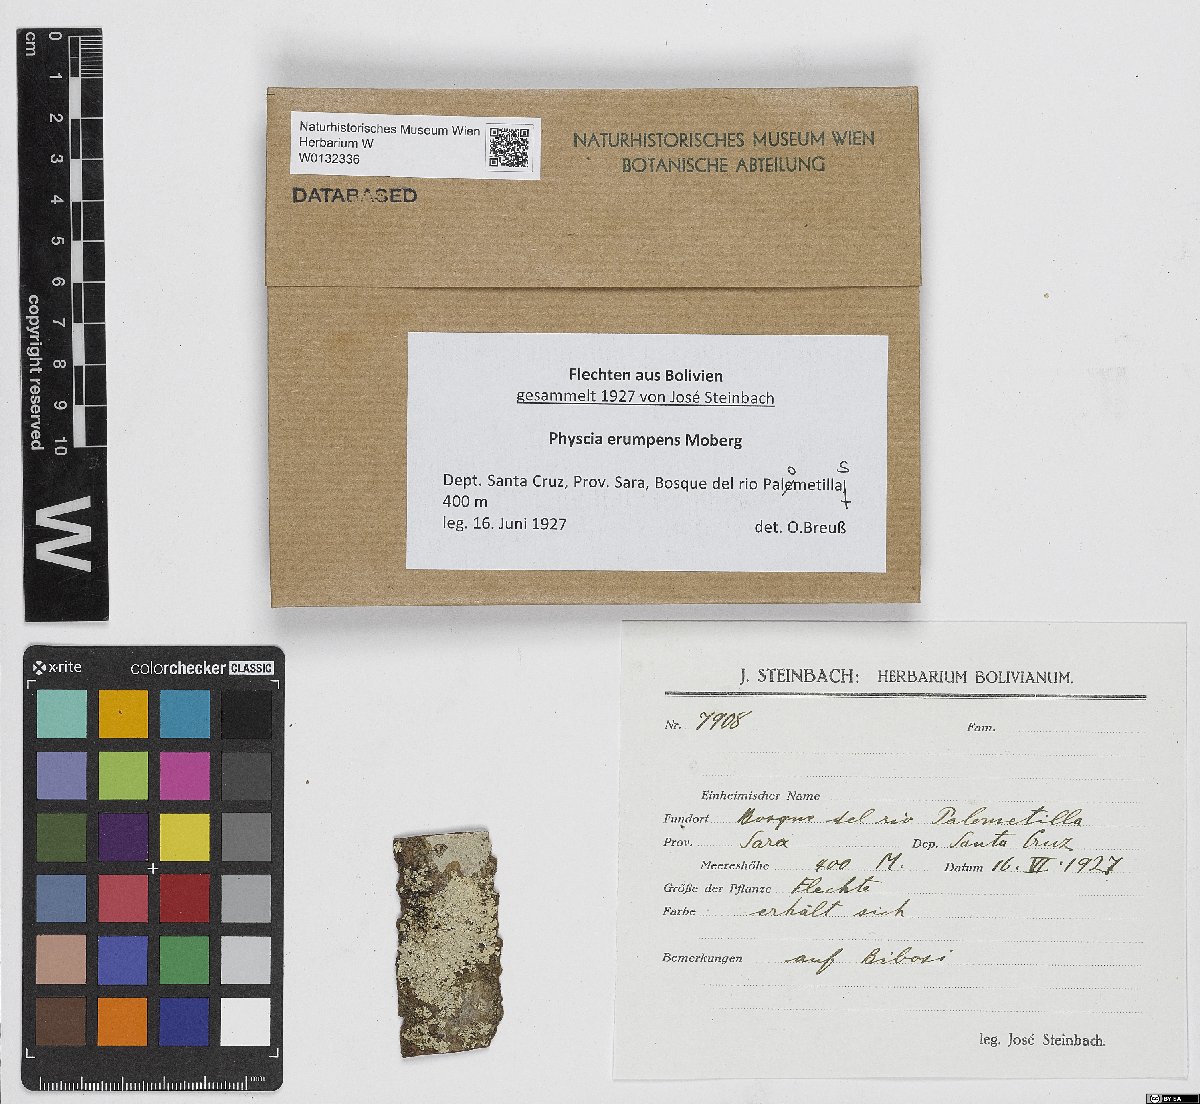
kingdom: Fungi
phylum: Ascomycota
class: Lecanoromycetes
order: Caliciales
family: Physciaceae
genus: Physcia
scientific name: Physcia erumpens
